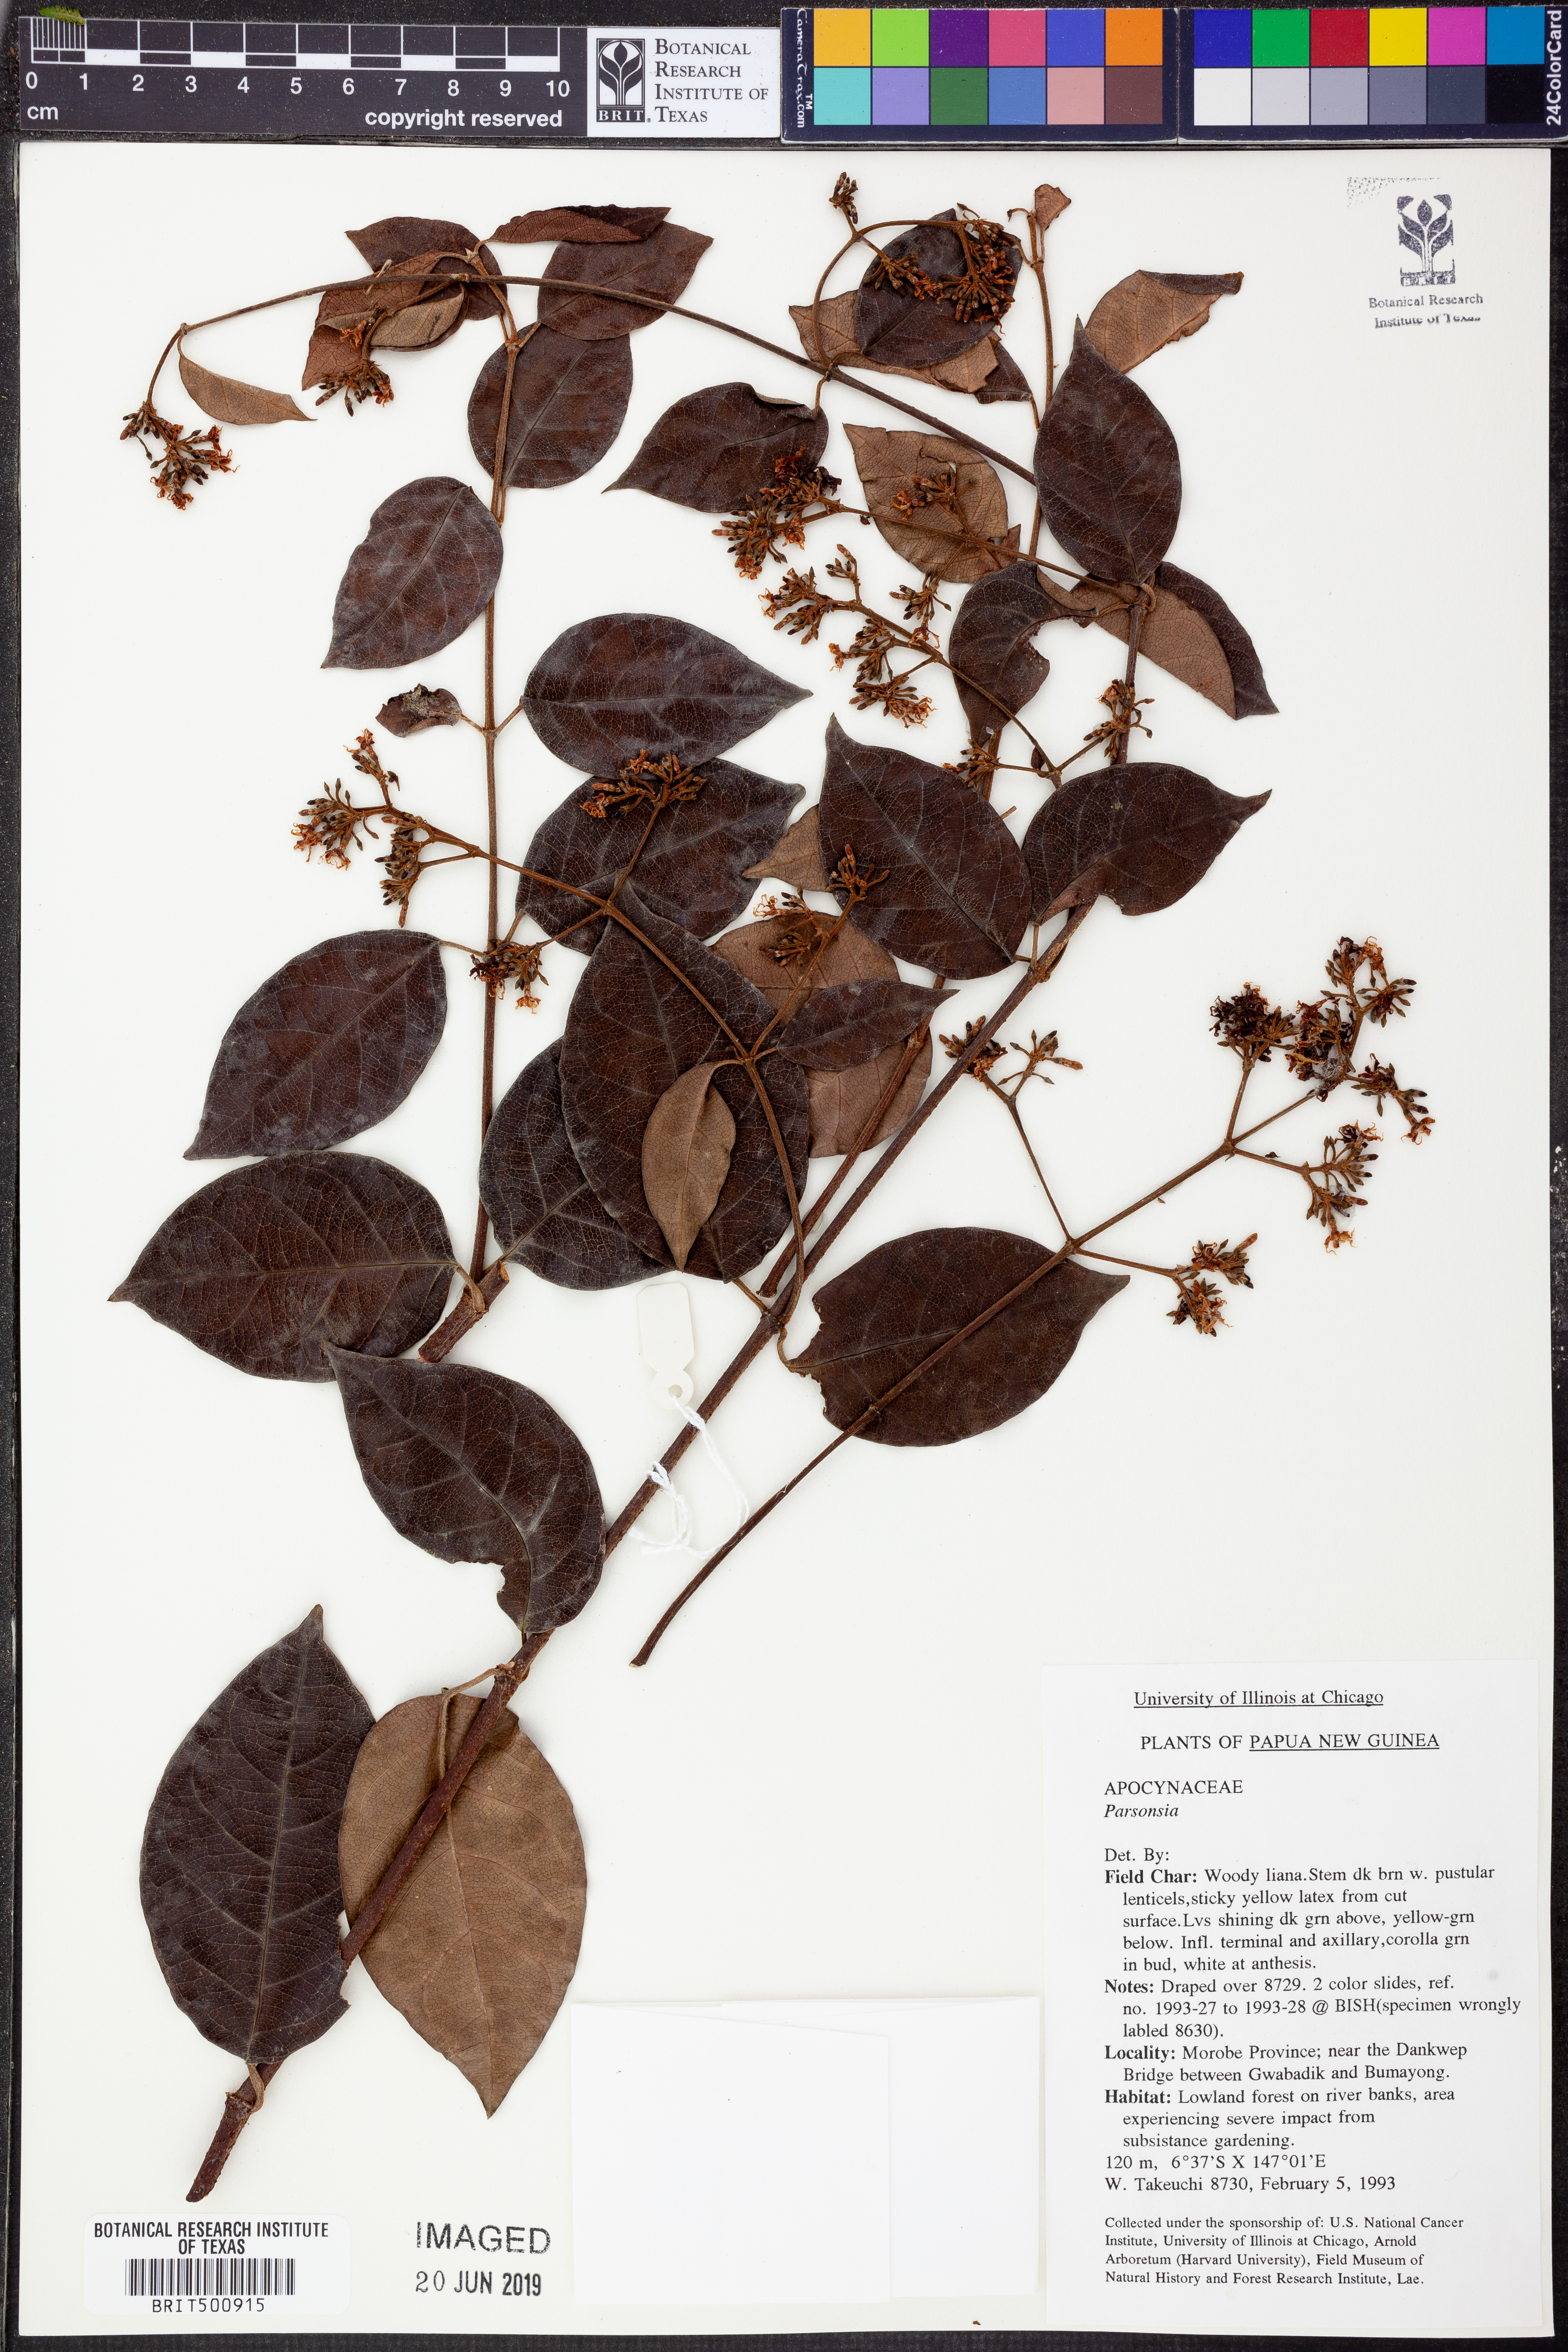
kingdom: Plantae
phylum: Tracheophyta
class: Magnoliopsida
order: Gentianales
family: Apocynaceae
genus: Parsonsia
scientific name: Parsonsia
